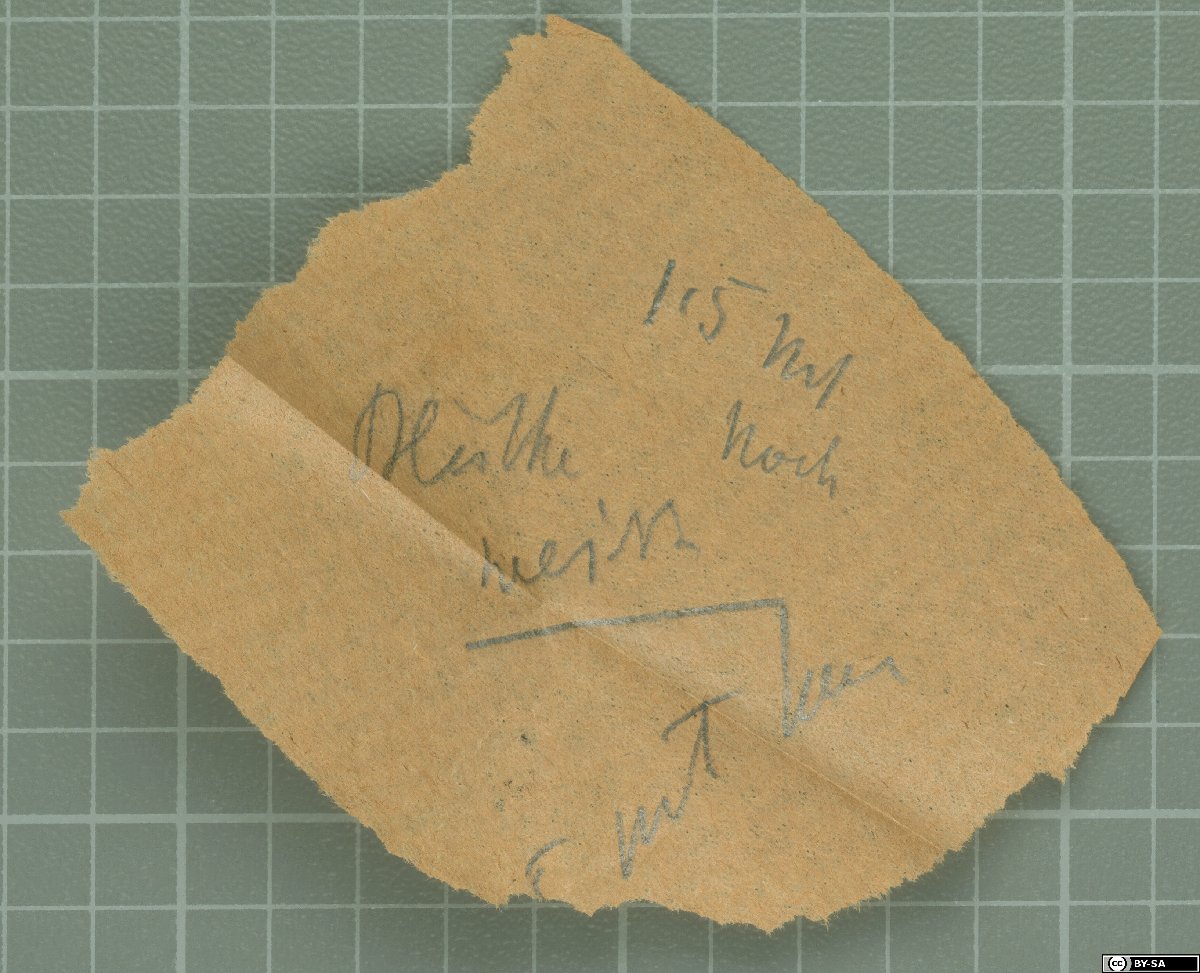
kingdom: Plantae
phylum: Tracheophyta
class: Magnoliopsida
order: Lamiales
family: Gesneriaceae
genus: Cyrtandra
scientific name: Cyrtandra longepedunculata
